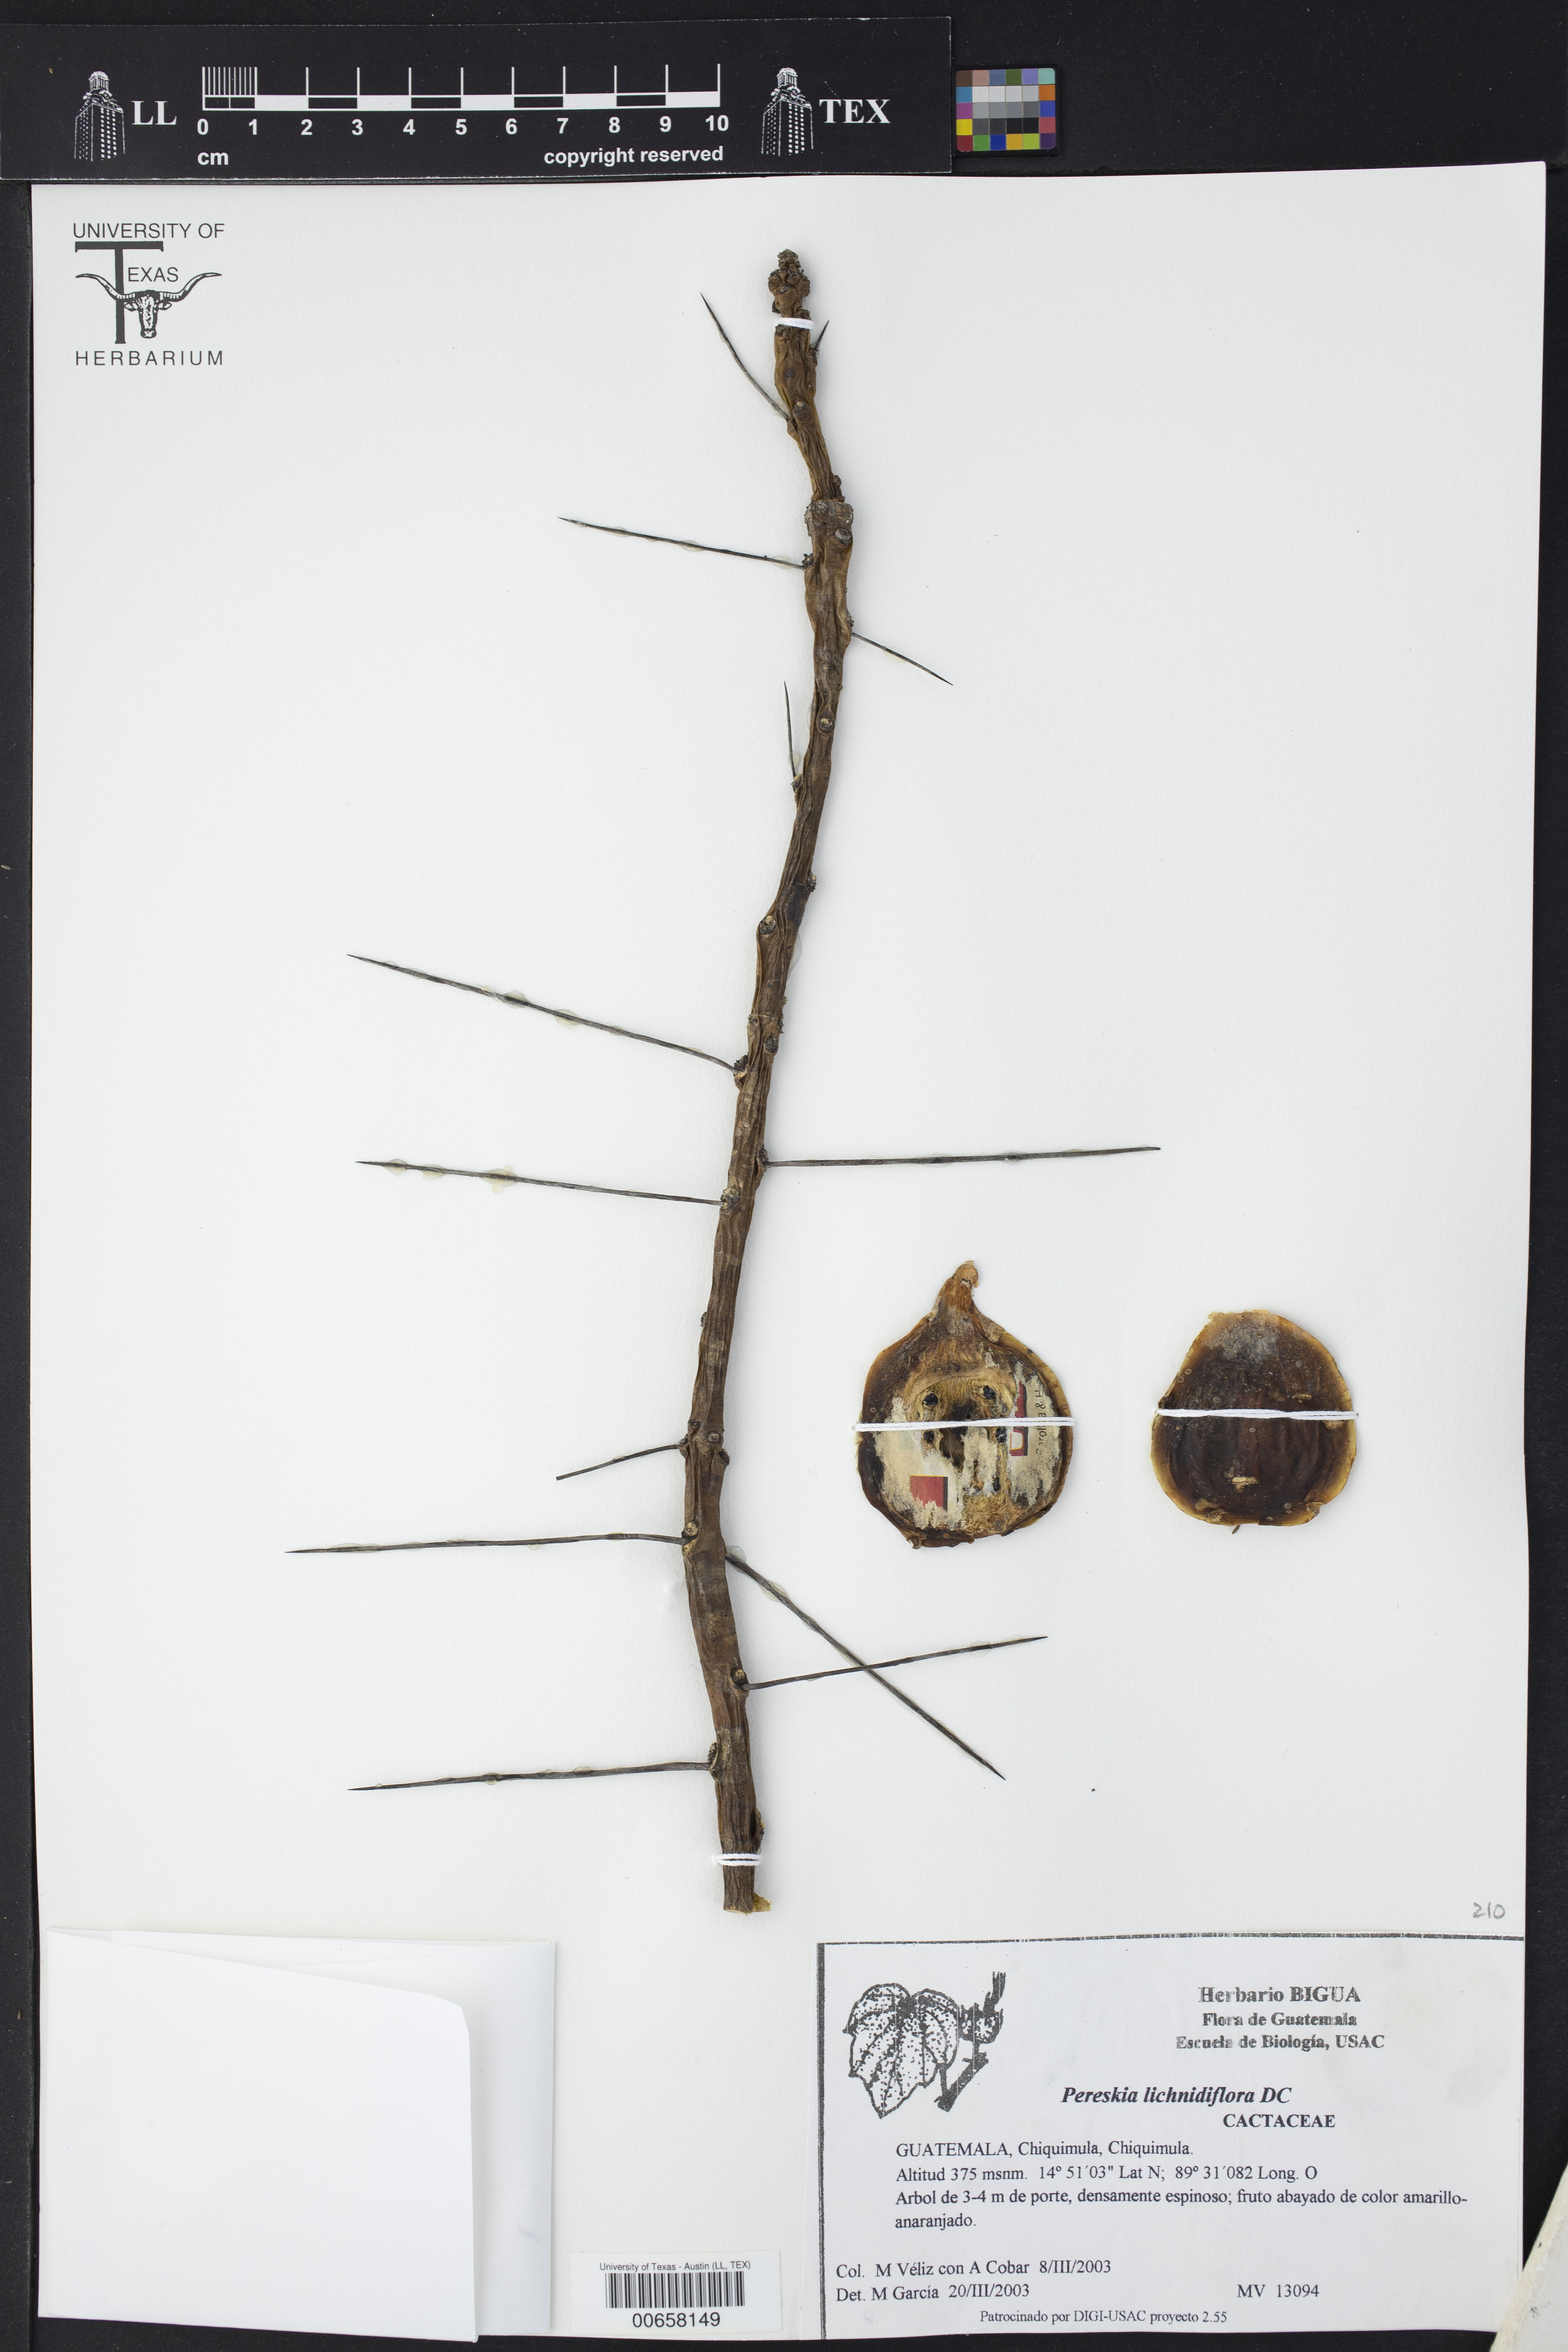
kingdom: Plantae
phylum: Tracheophyta
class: Magnoliopsida
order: Caryophyllales
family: Cactaceae
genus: Leuenbergeria
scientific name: Leuenbergeria lychnidiflora
